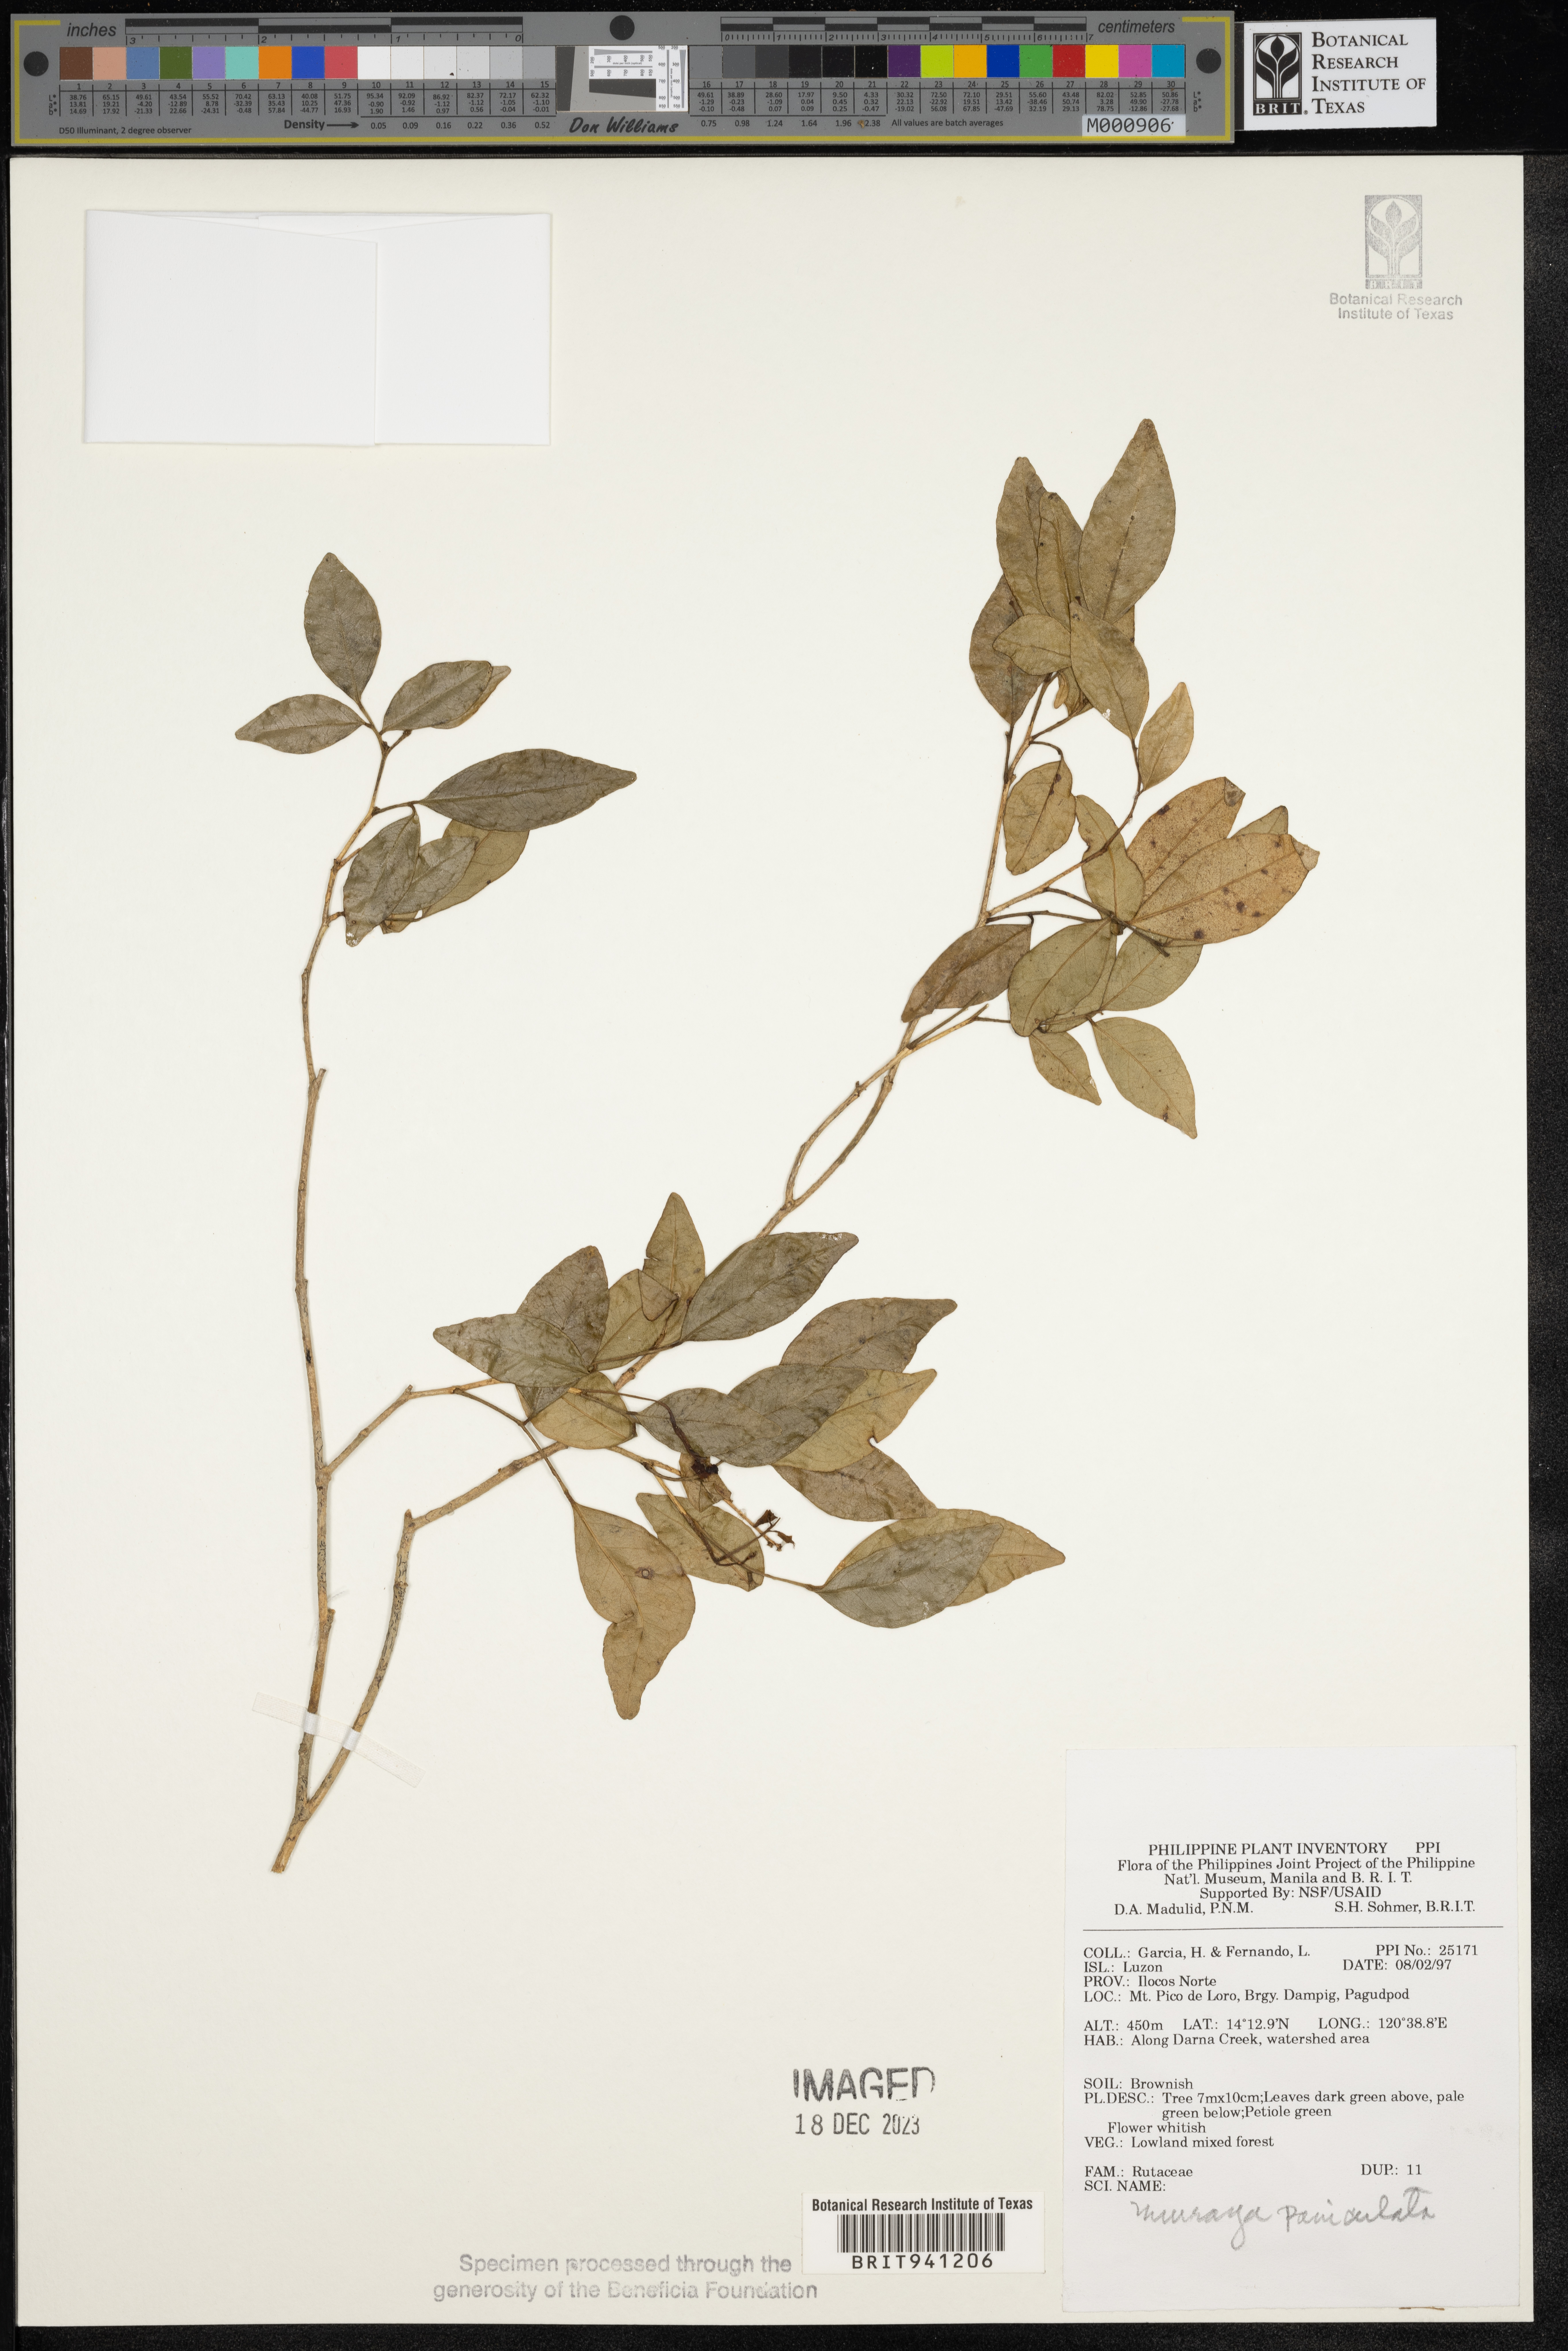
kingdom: Plantae
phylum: Tracheophyta
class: Magnoliopsida
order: Sapindales
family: Rutaceae
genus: Murraya
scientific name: Murraya
